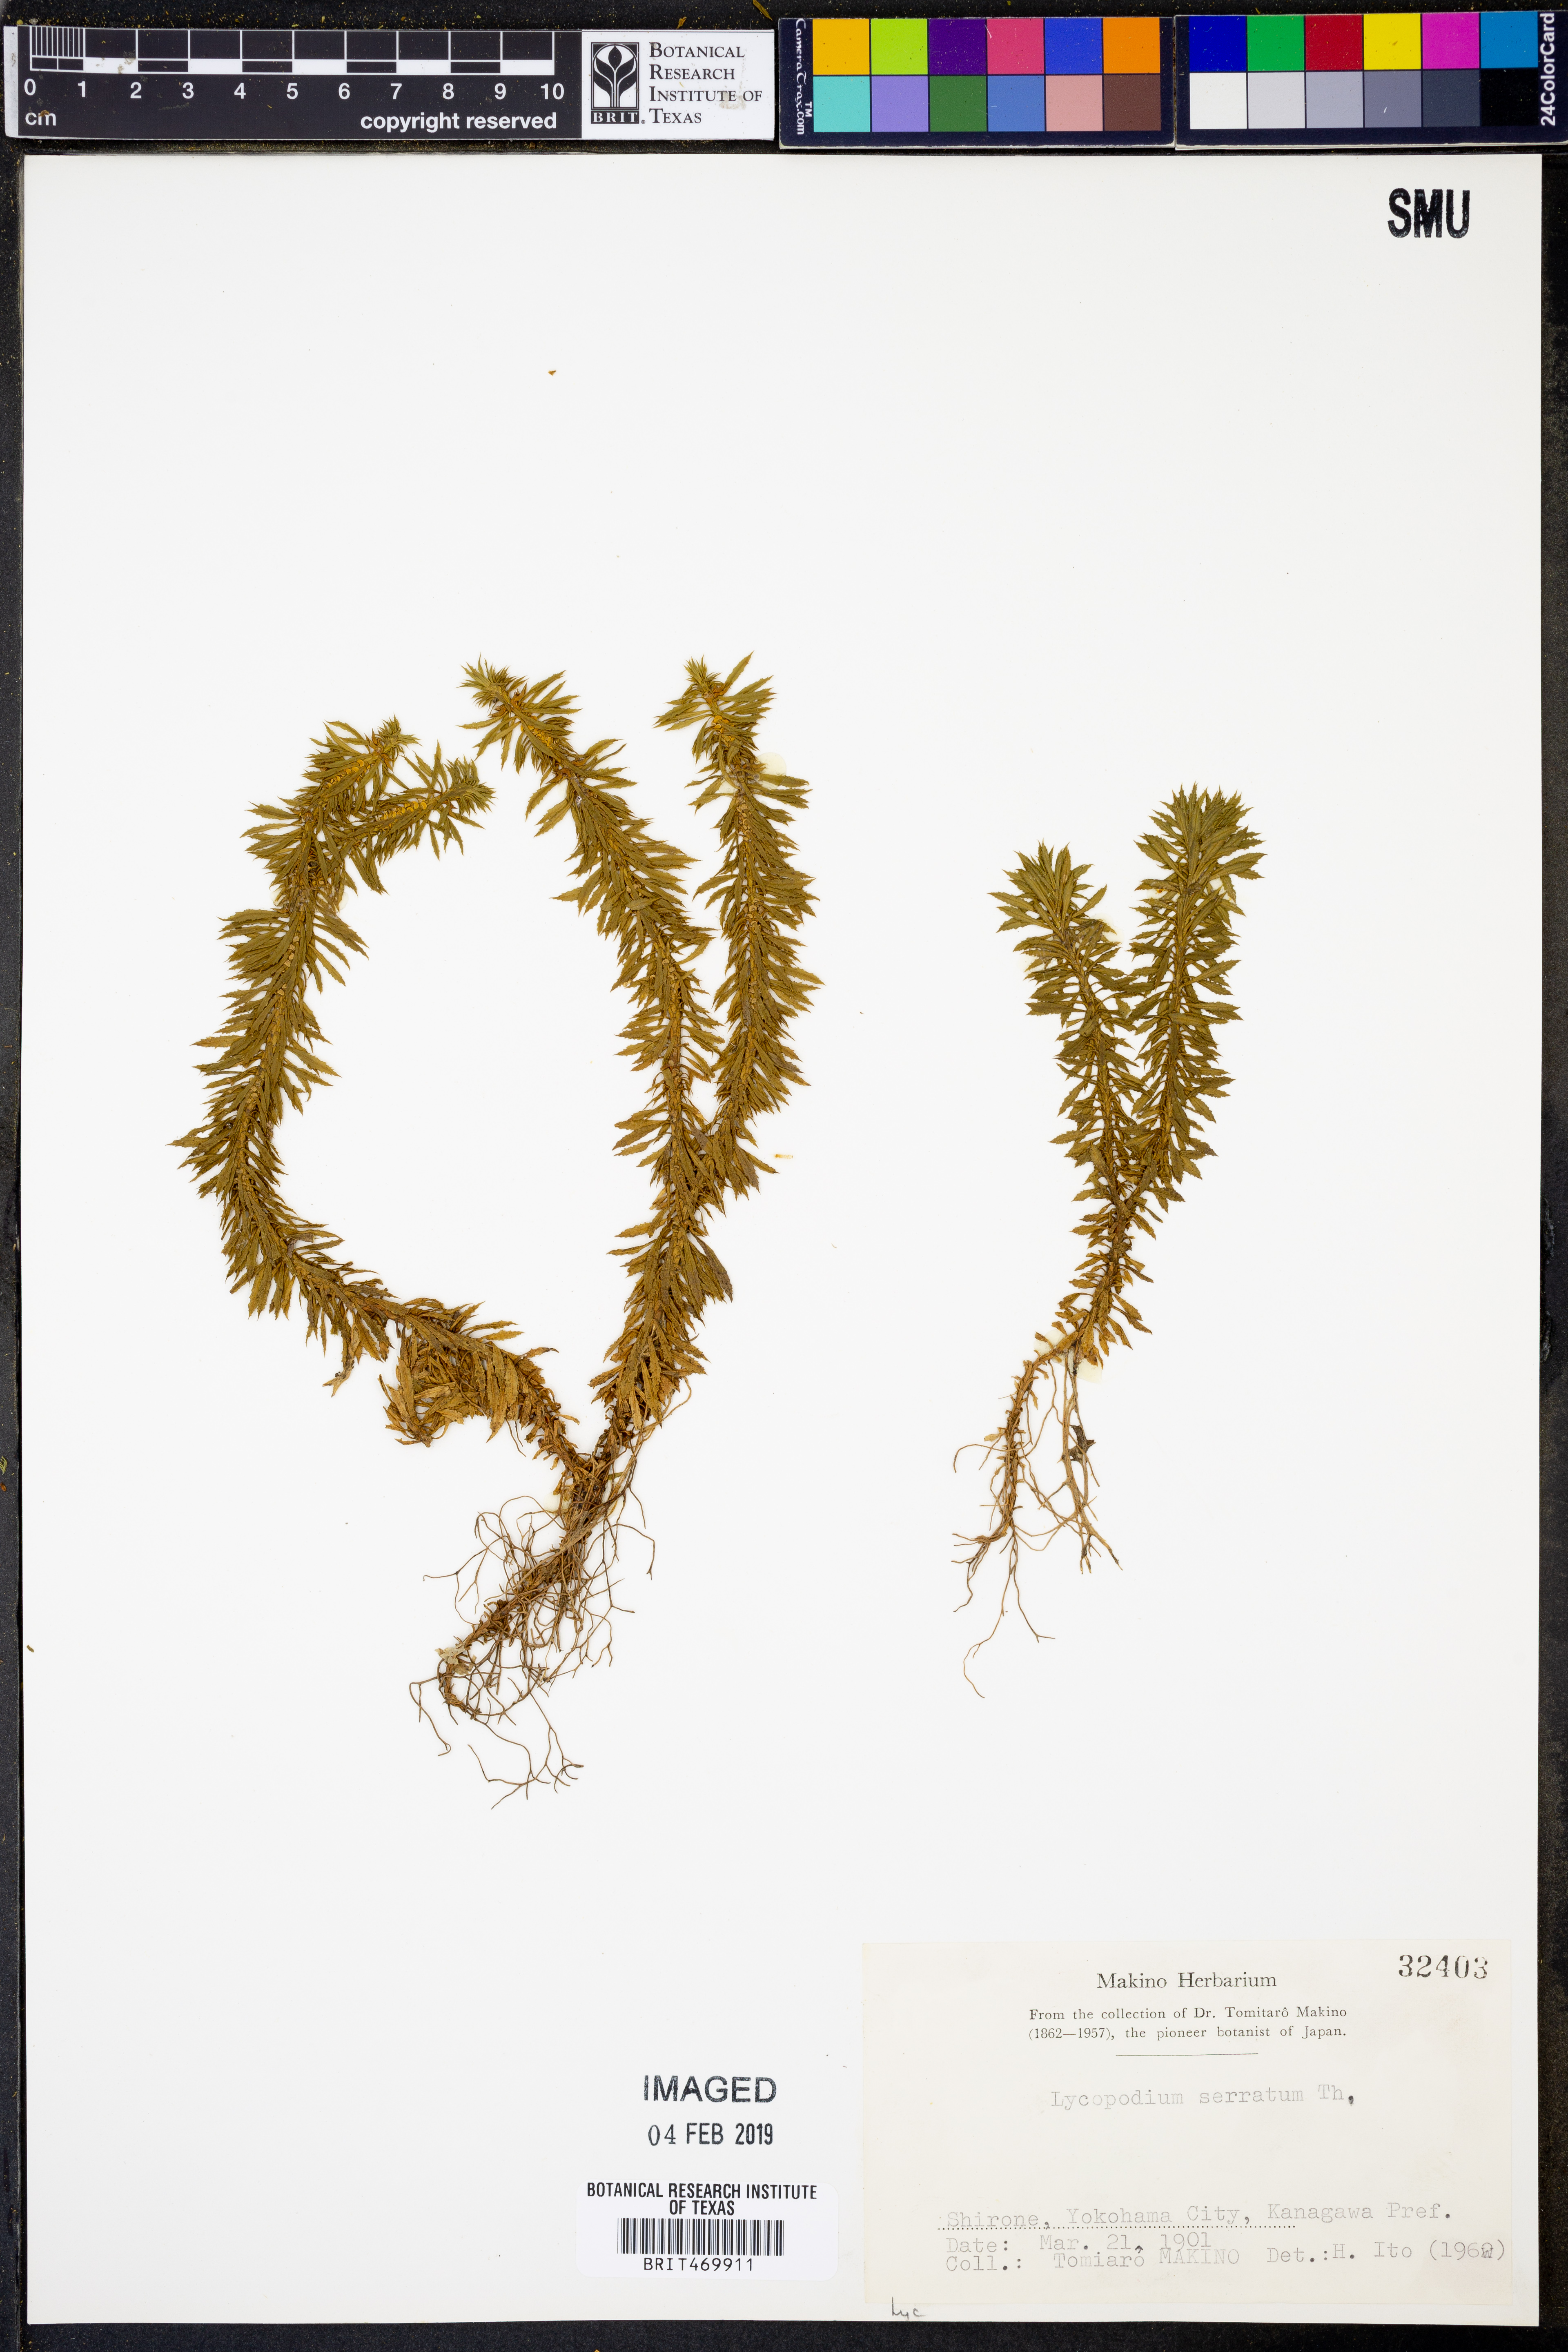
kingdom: Plantae
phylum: Tracheophyta
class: Lycopodiopsida
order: Lycopodiales
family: Lycopodiaceae
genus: Huperzia
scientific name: Huperzia serrata
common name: Toothed club-moss
